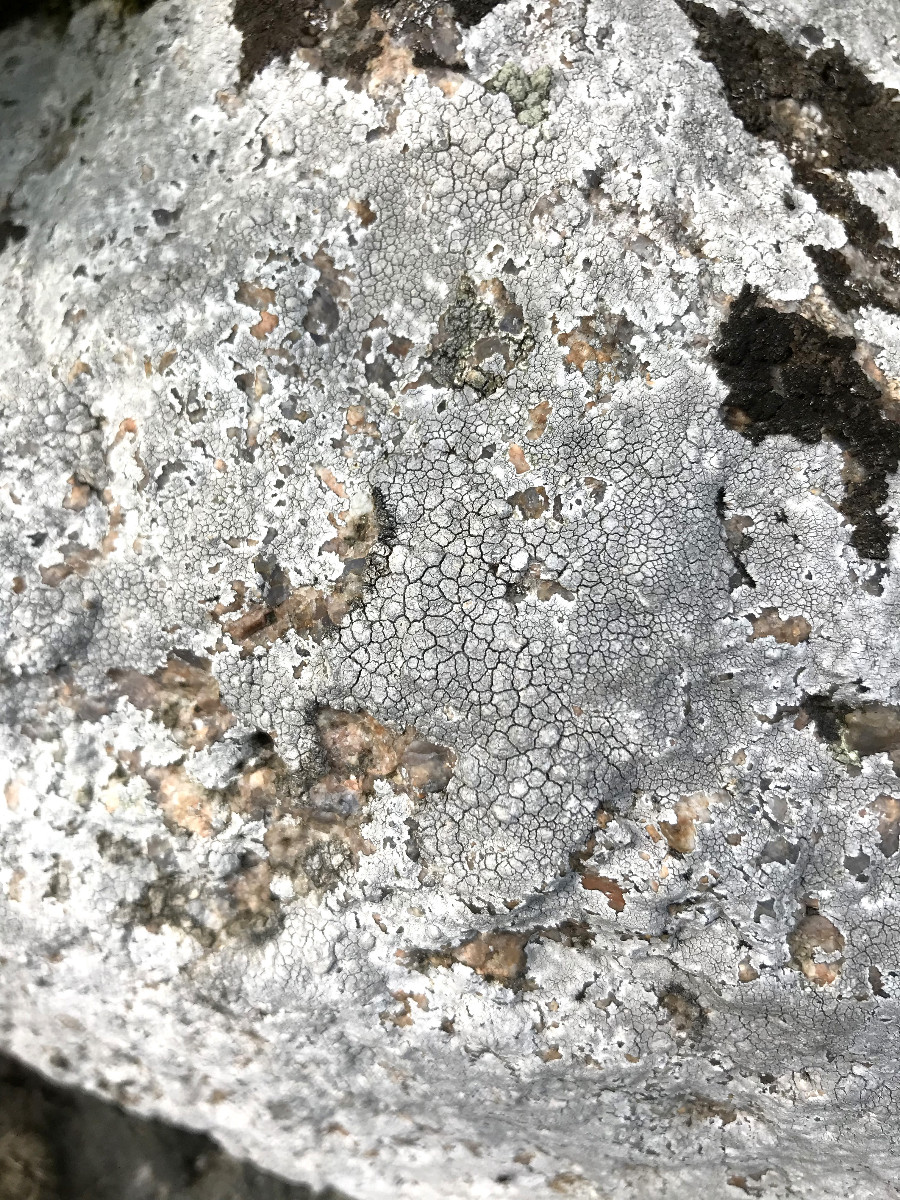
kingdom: Fungi
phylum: Ascomycota
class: Lecanoromycetes
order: Lecanorales
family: Lecanoraceae
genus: Glaucomaria
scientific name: Glaucomaria rupicola
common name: stengærde-kantskivelav
